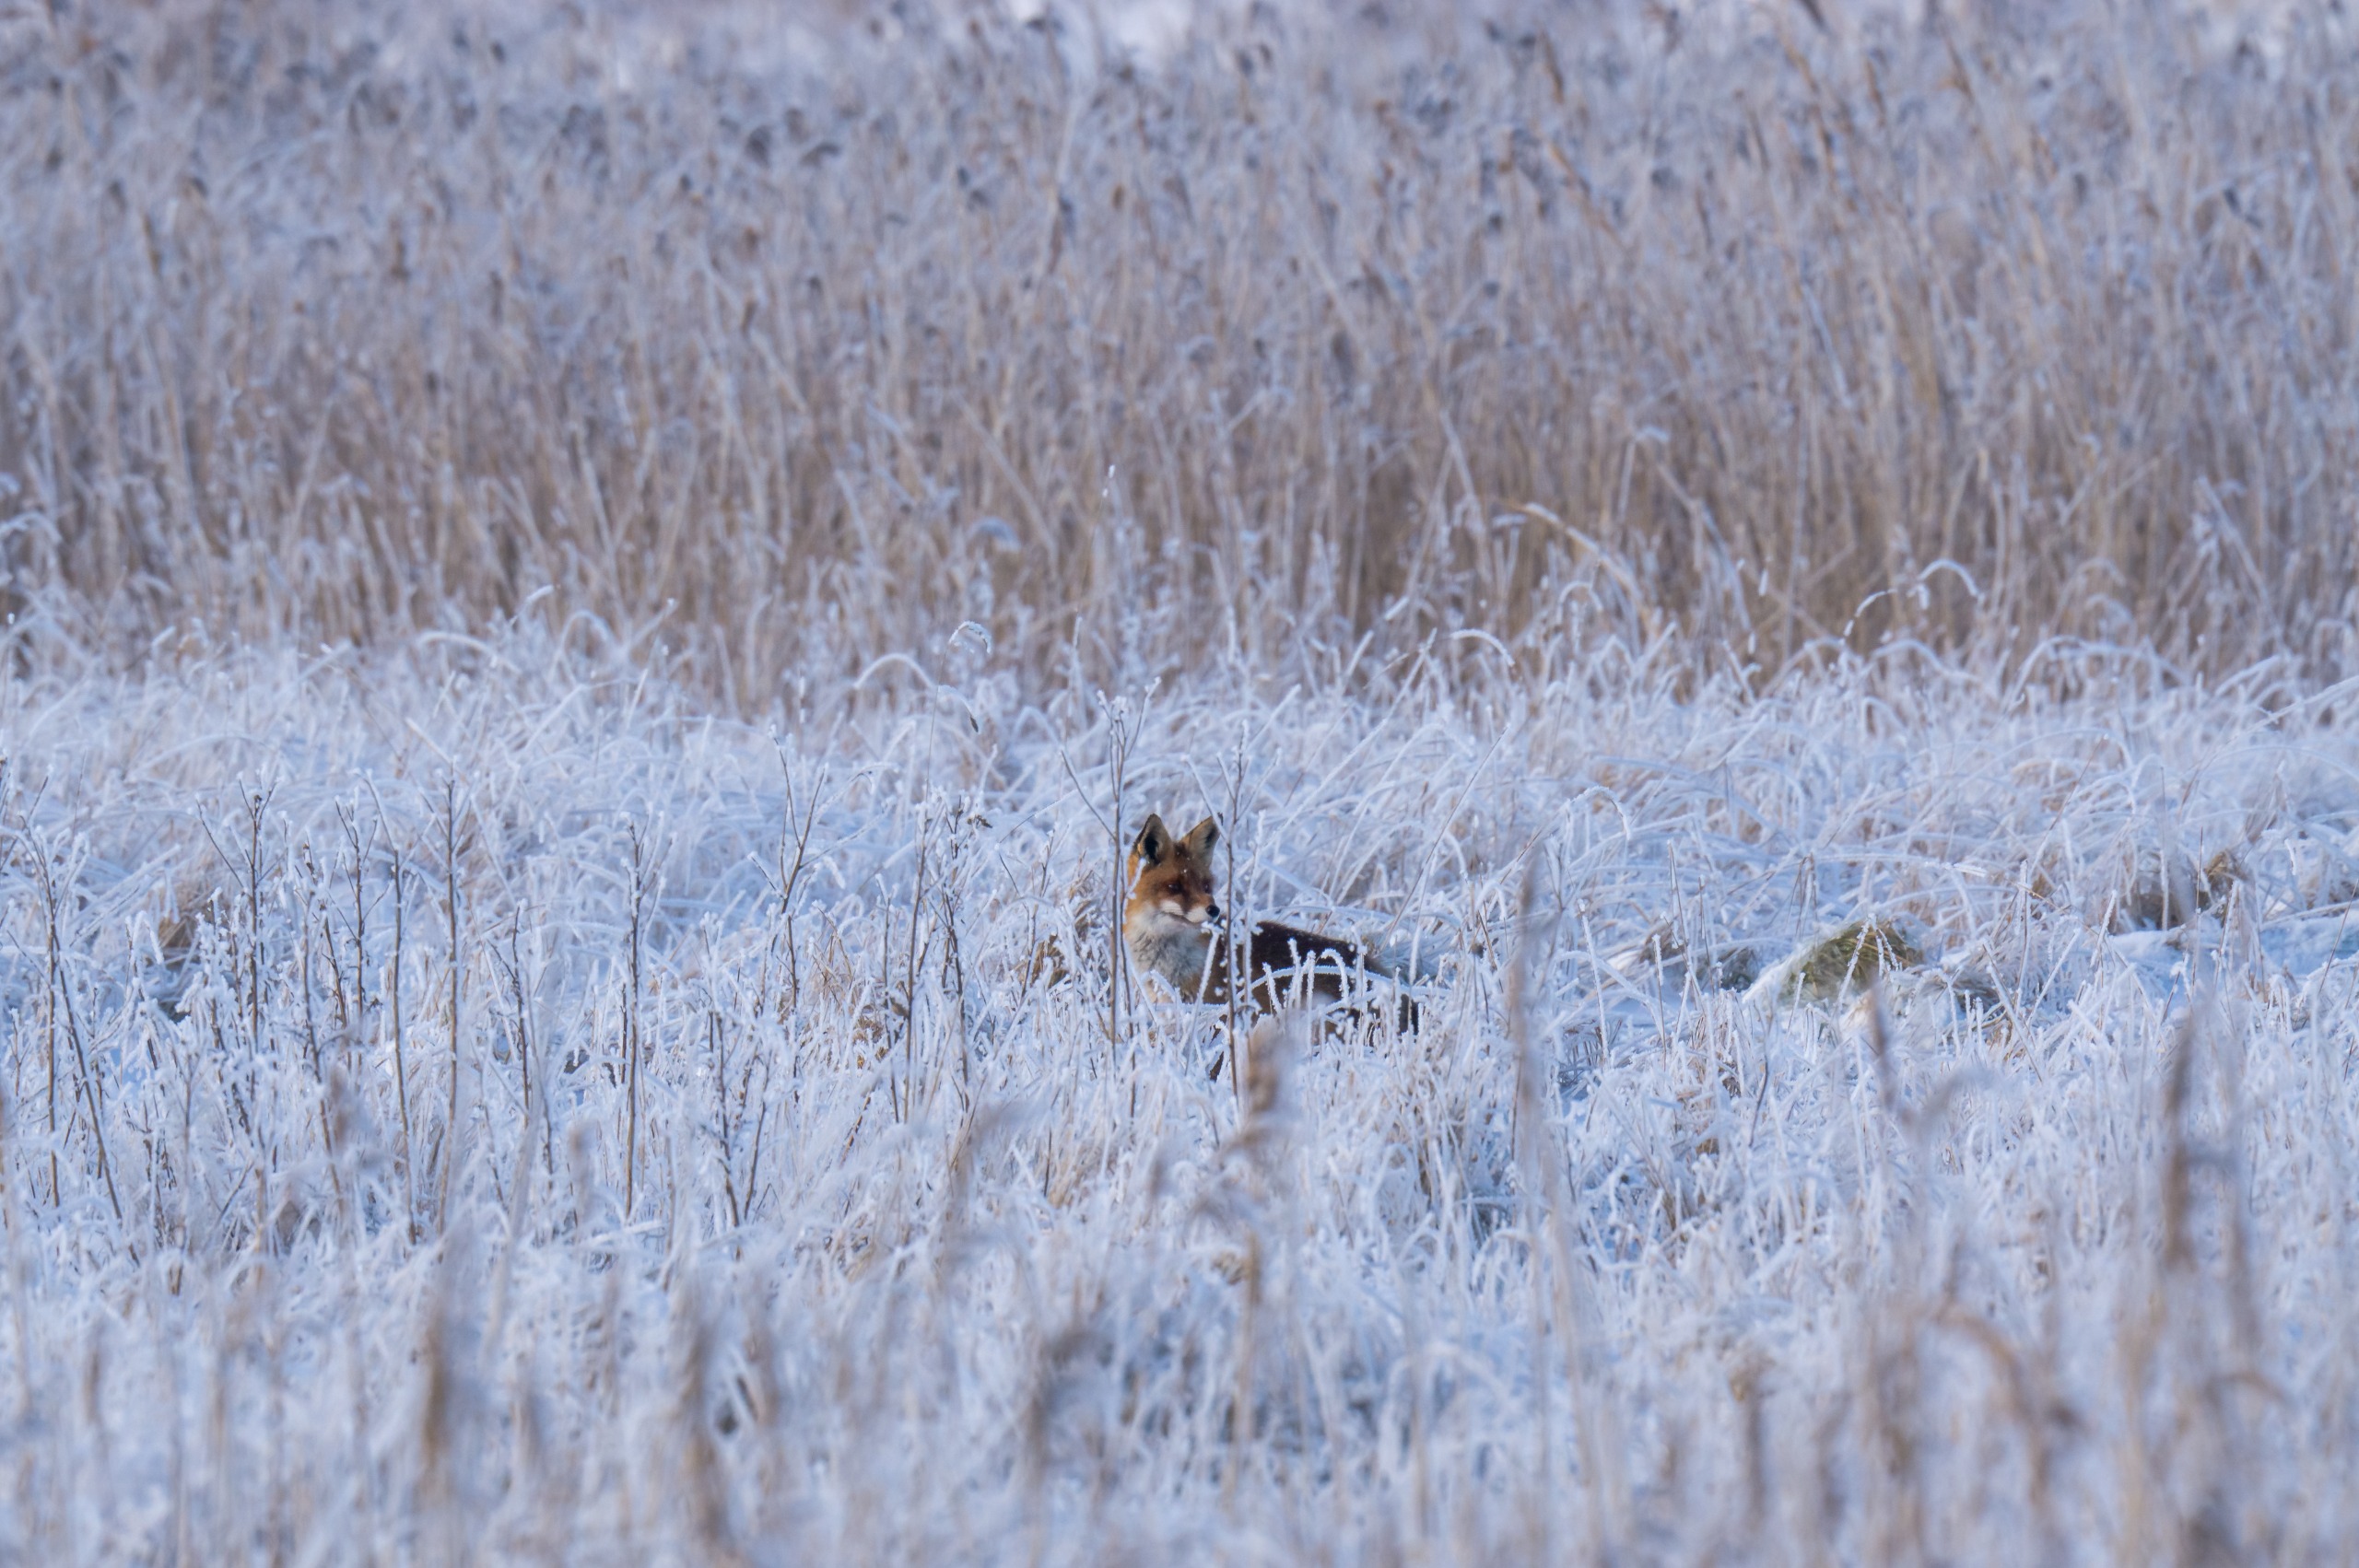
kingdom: Animalia
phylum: Chordata
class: Mammalia
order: Carnivora
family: Canidae
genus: Vulpes
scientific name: Vulpes vulpes
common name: Ræv
